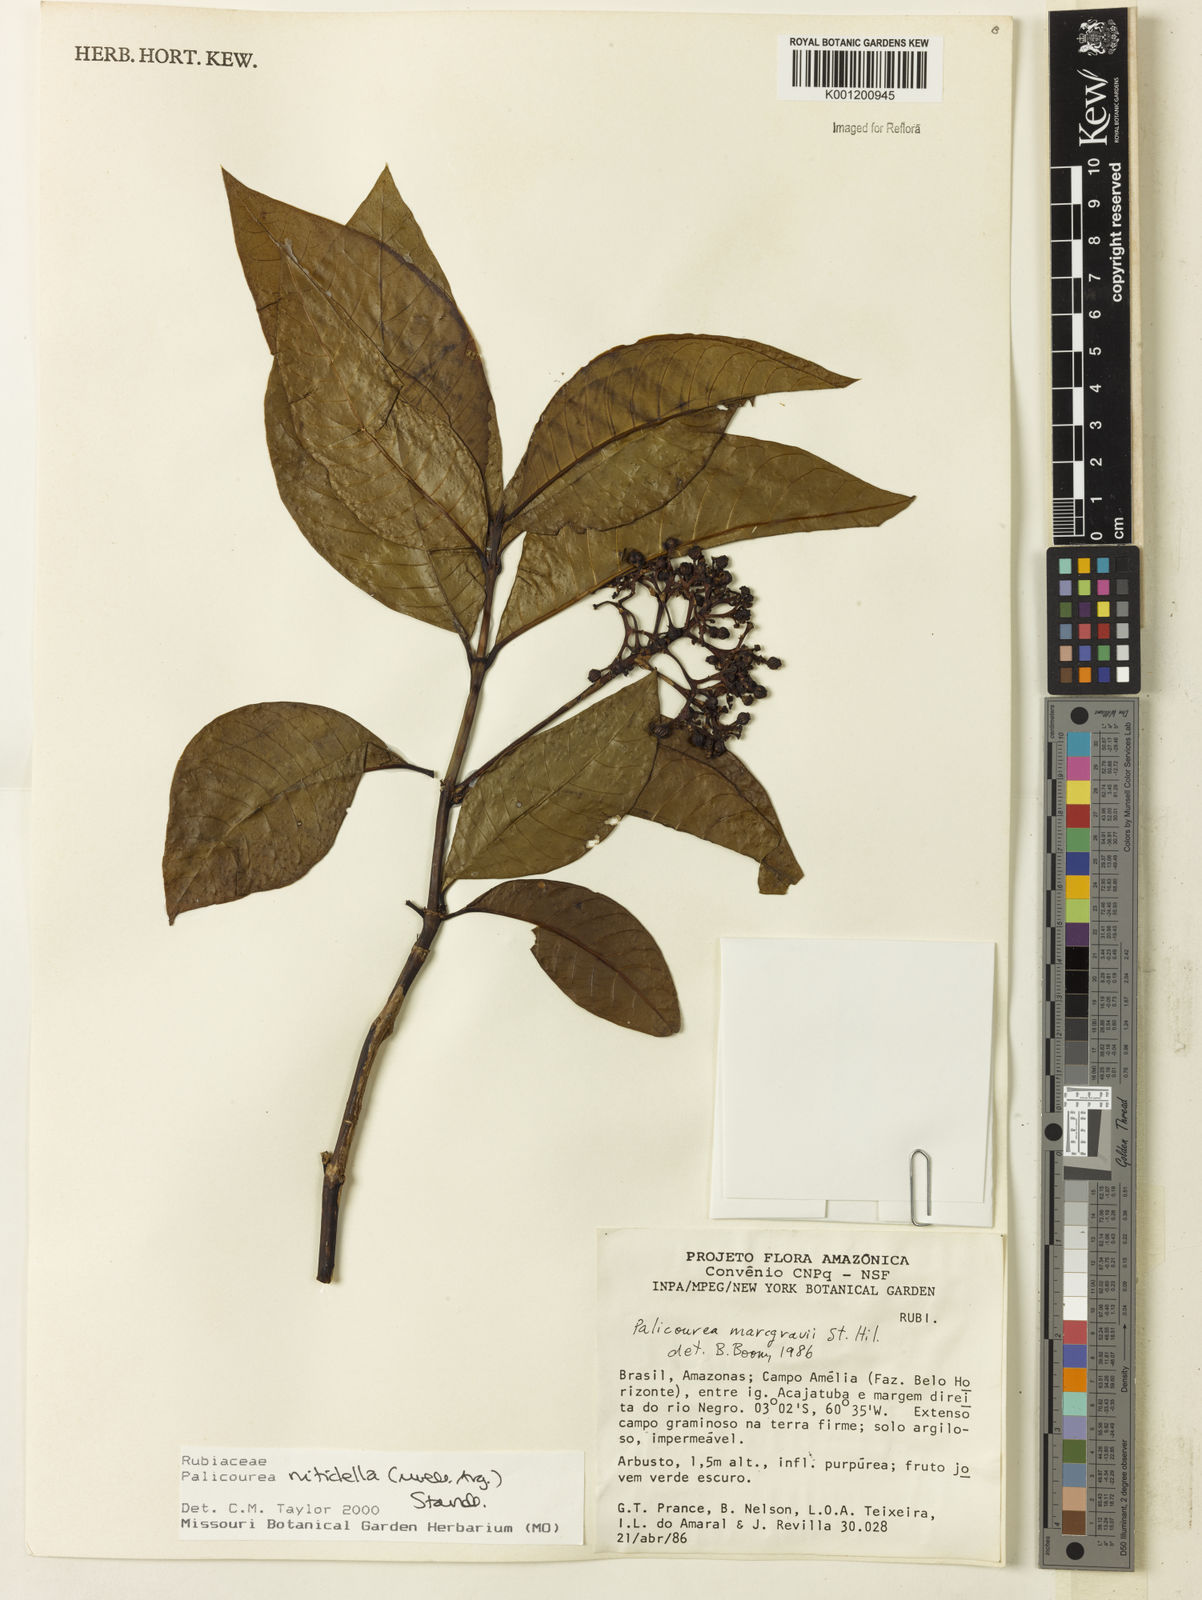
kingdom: Plantae
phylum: Tracheophyta
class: Magnoliopsida
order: Gentianales
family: Rubiaceae
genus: Palicourea
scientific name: Palicourea
